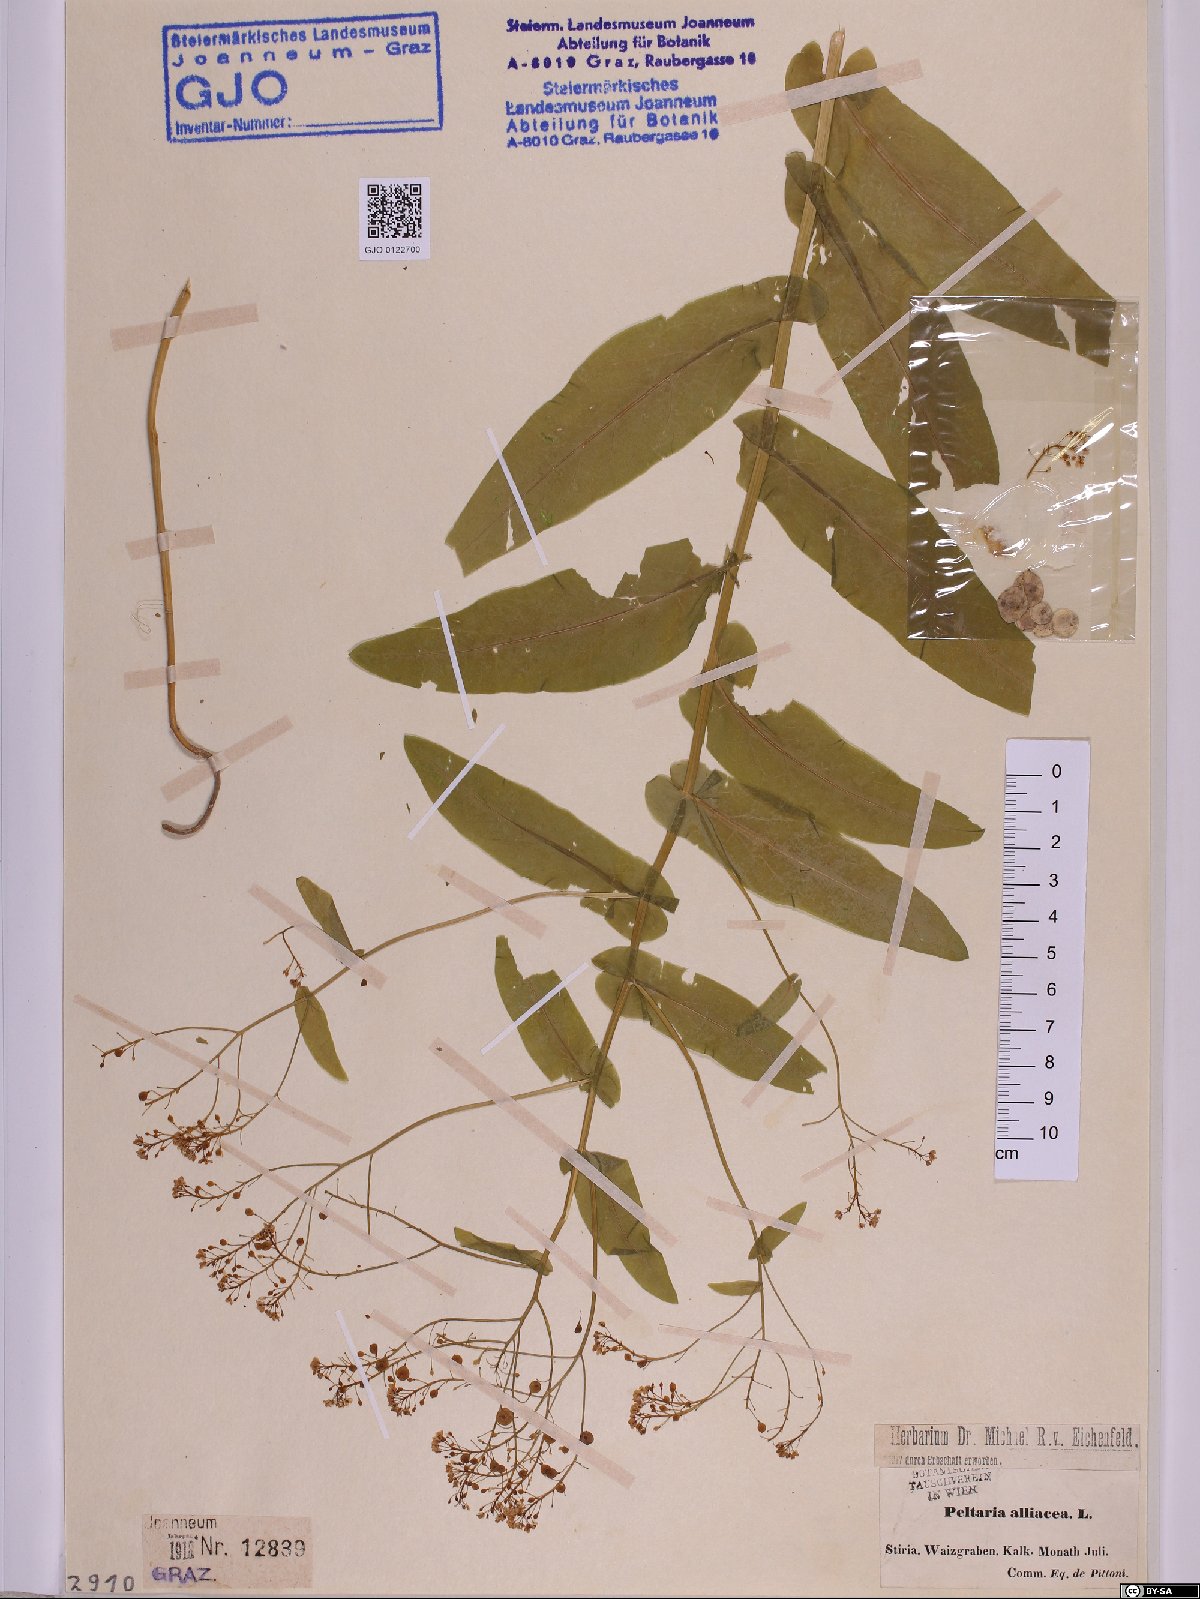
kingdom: Plantae
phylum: Tracheophyta
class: Magnoliopsida
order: Brassicales
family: Brassicaceae
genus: Peltaria
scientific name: Peltaria alliacea
